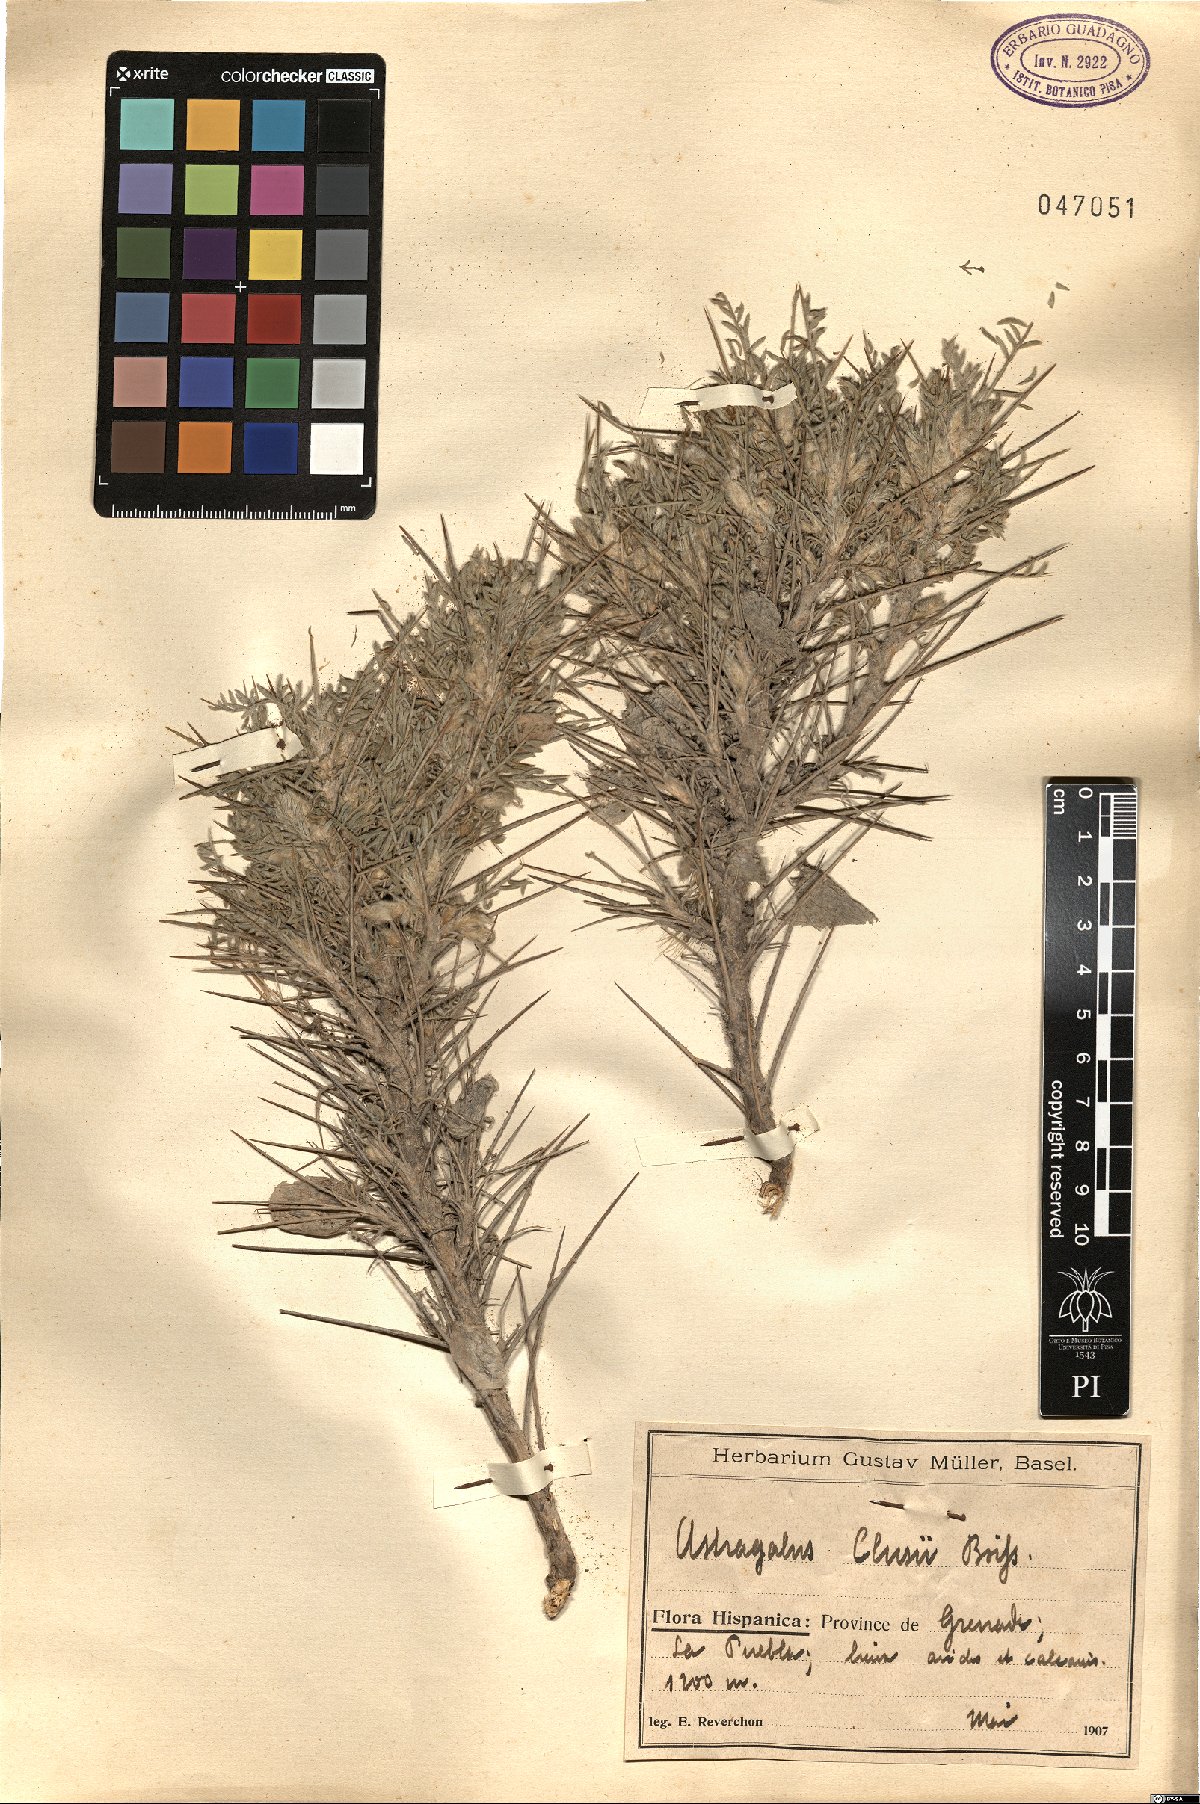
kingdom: Plantae
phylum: Tracheophyta
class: Magnoliopsida
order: Fabales
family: Fabaceae
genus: Astragalus
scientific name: Astragalus clusianus
